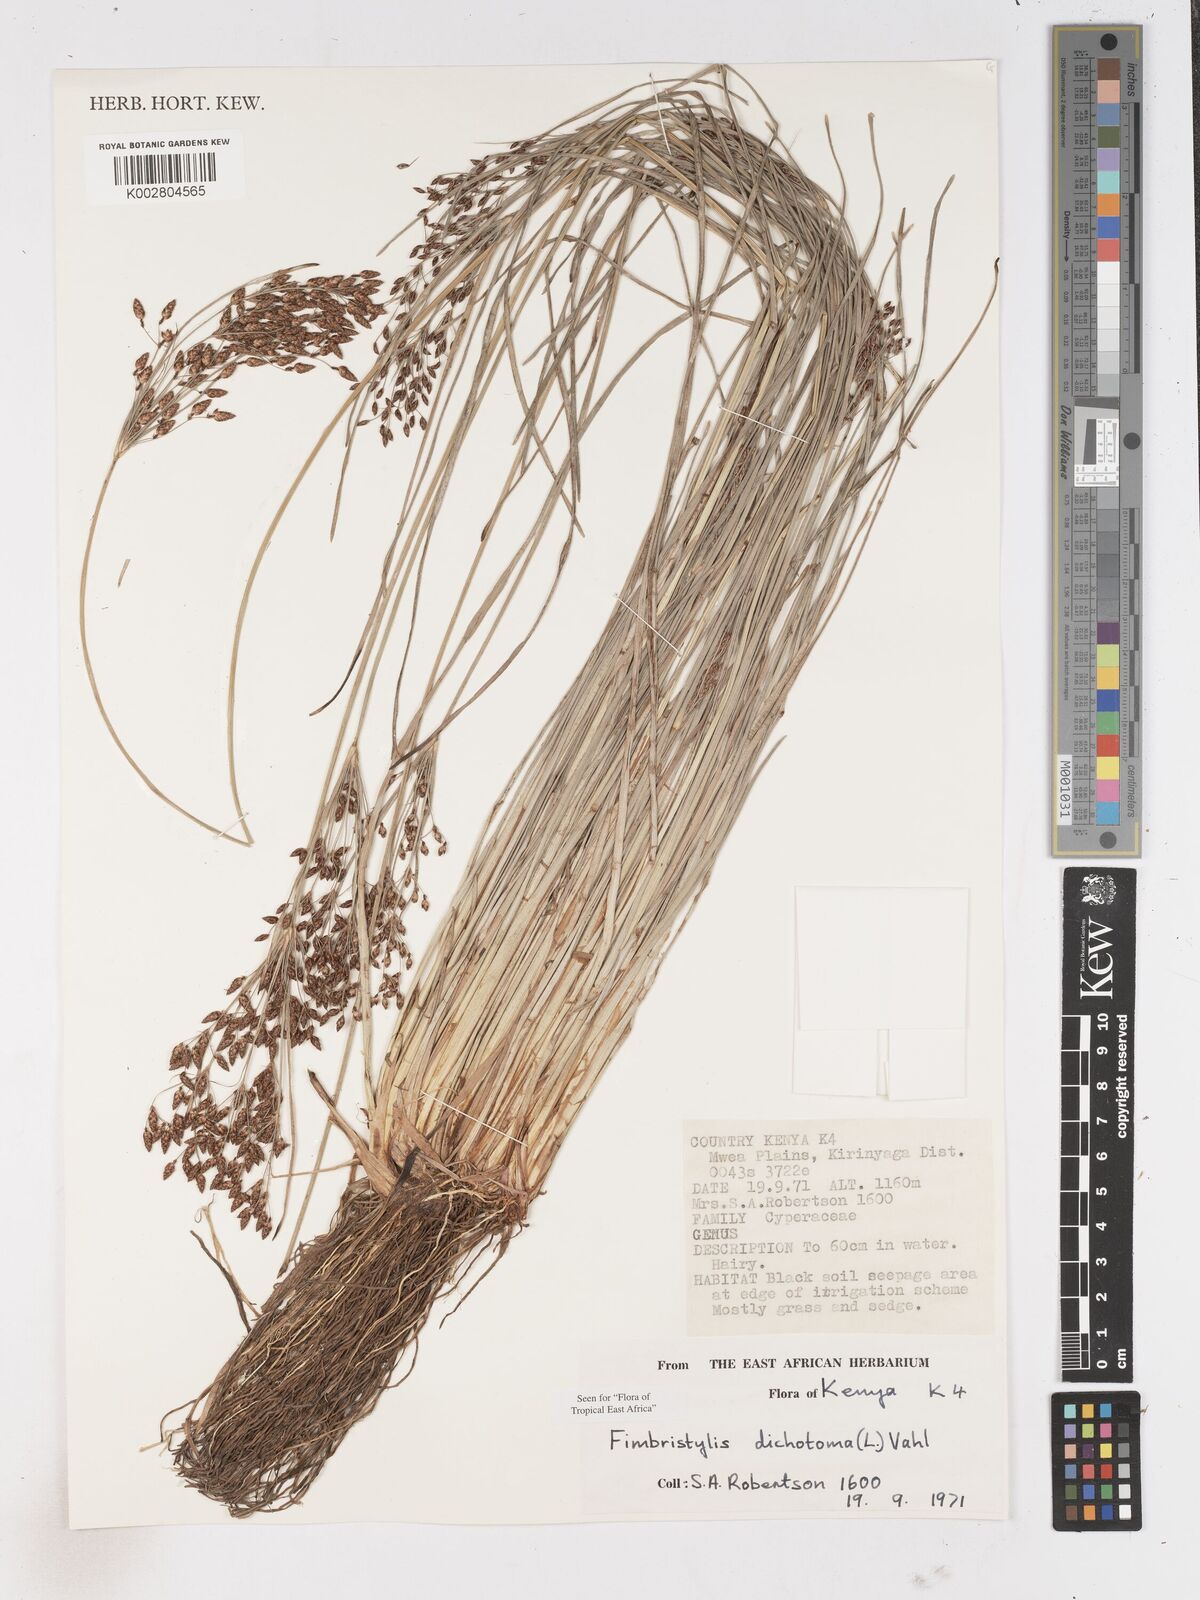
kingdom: Plantae
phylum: Tracheophyta
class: Liliopsida
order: Poales
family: Cyperaceae
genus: Fimbristylis
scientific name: Fimbristylis dichotoma
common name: Forked fimbry
